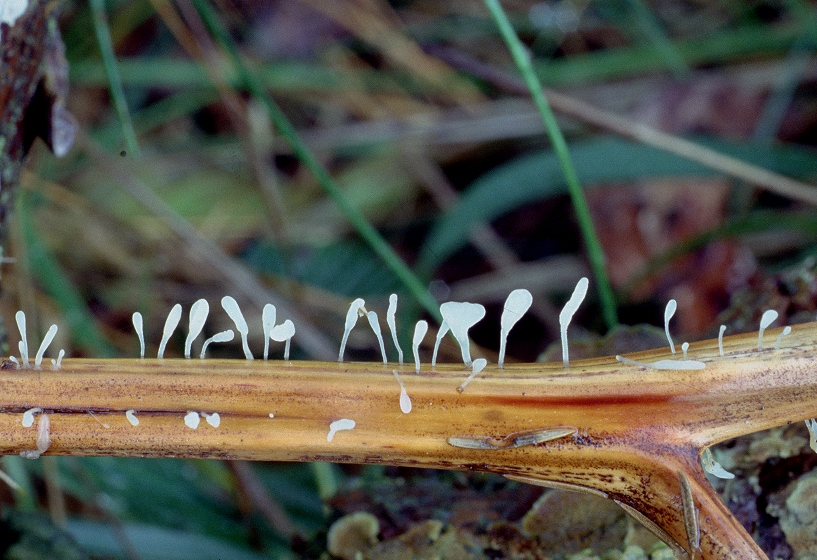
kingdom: Fungi
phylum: Basidiomycota
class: Agaricomycetes
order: Agaricales
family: Typhulaceae
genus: Typhula
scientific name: Typhula quisquiliaris
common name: ørnebregne-trådkølle
